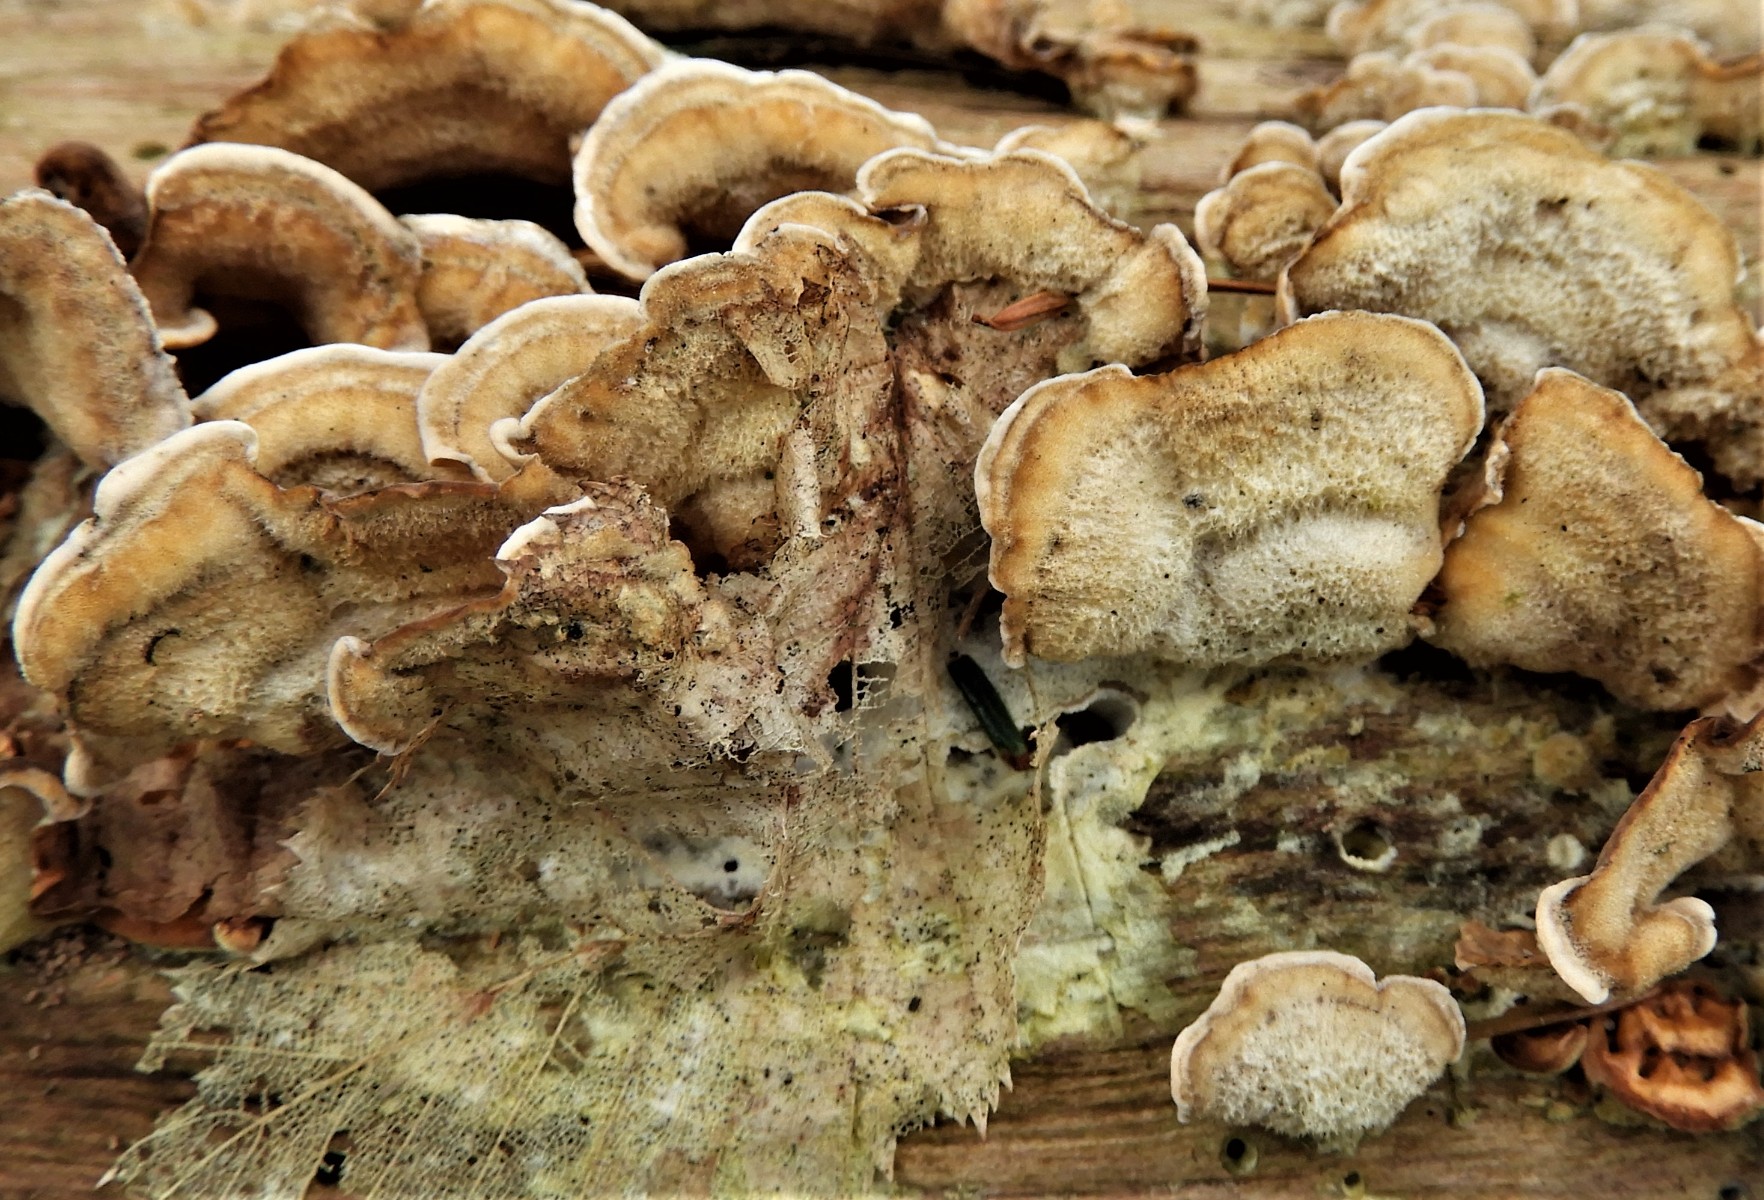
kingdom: Fungi
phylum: Basidiomycota
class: Agaricomycetes
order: Russulales
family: Stereaceae
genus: Stereum
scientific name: Stereum hirsutum
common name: håret lædersvamp
